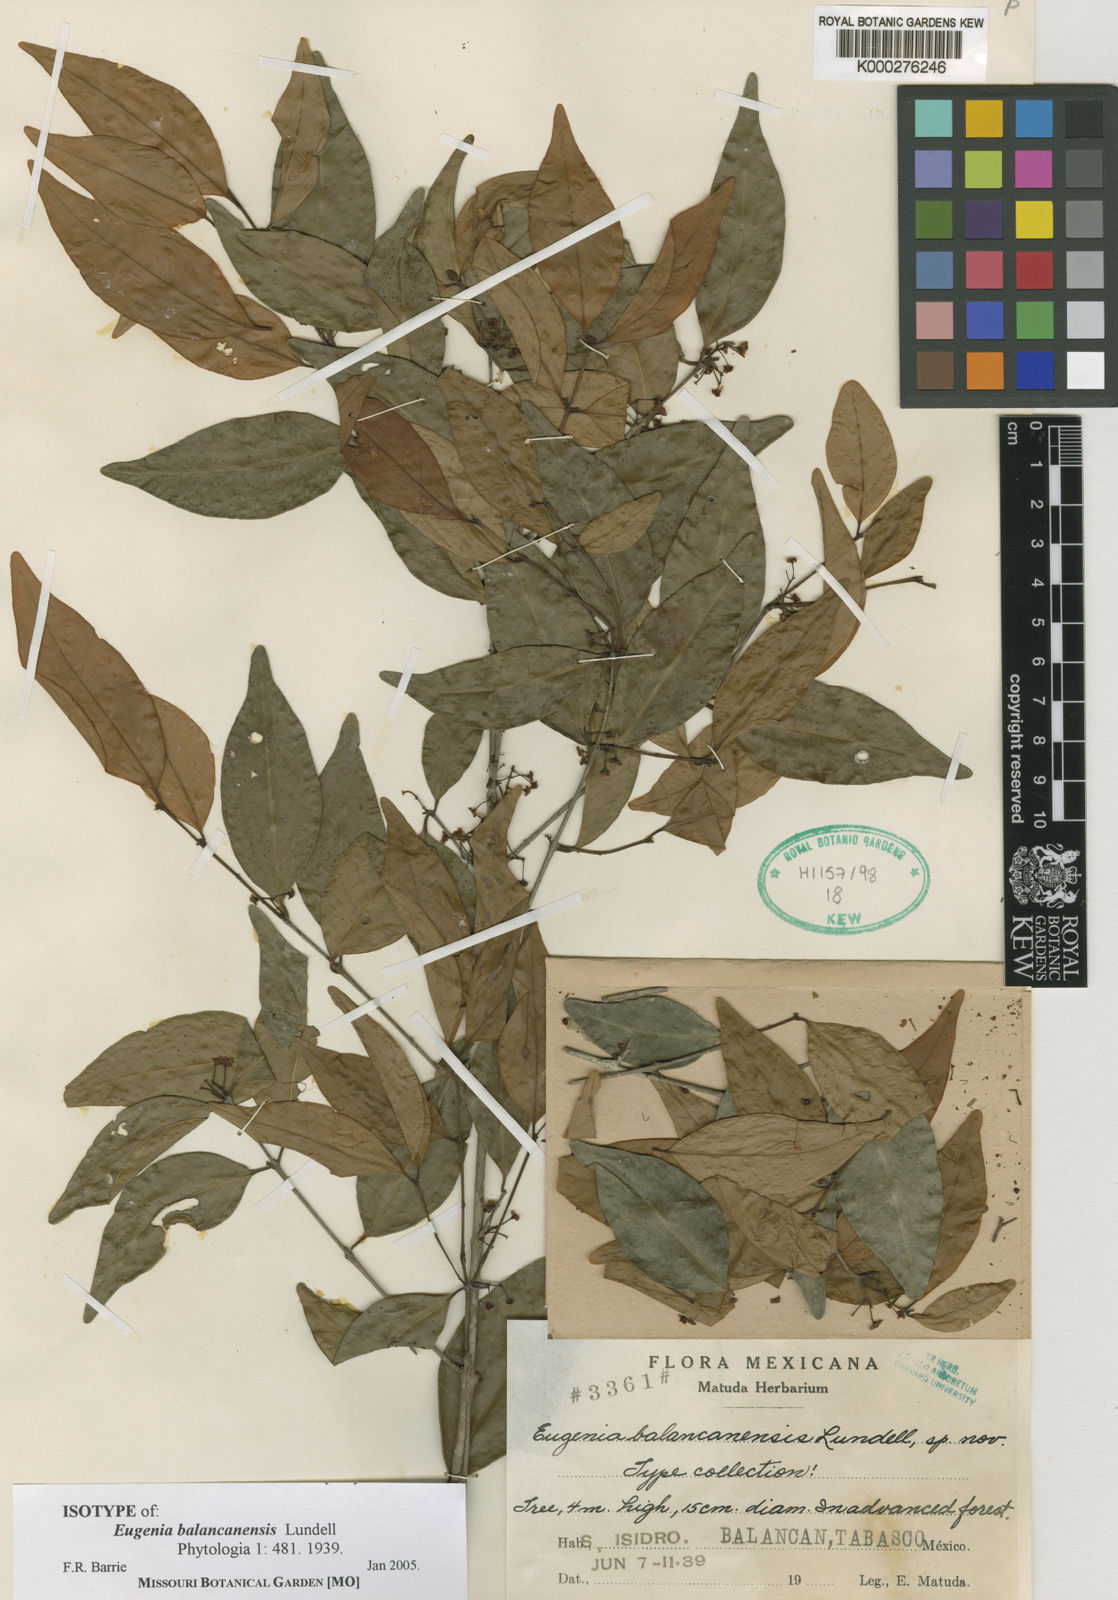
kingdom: Plantae
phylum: Tracheophyta
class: Magnoliopsida
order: Myrtales
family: Myrtaceae
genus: Eugenia
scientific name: Eugenia oerstediana
